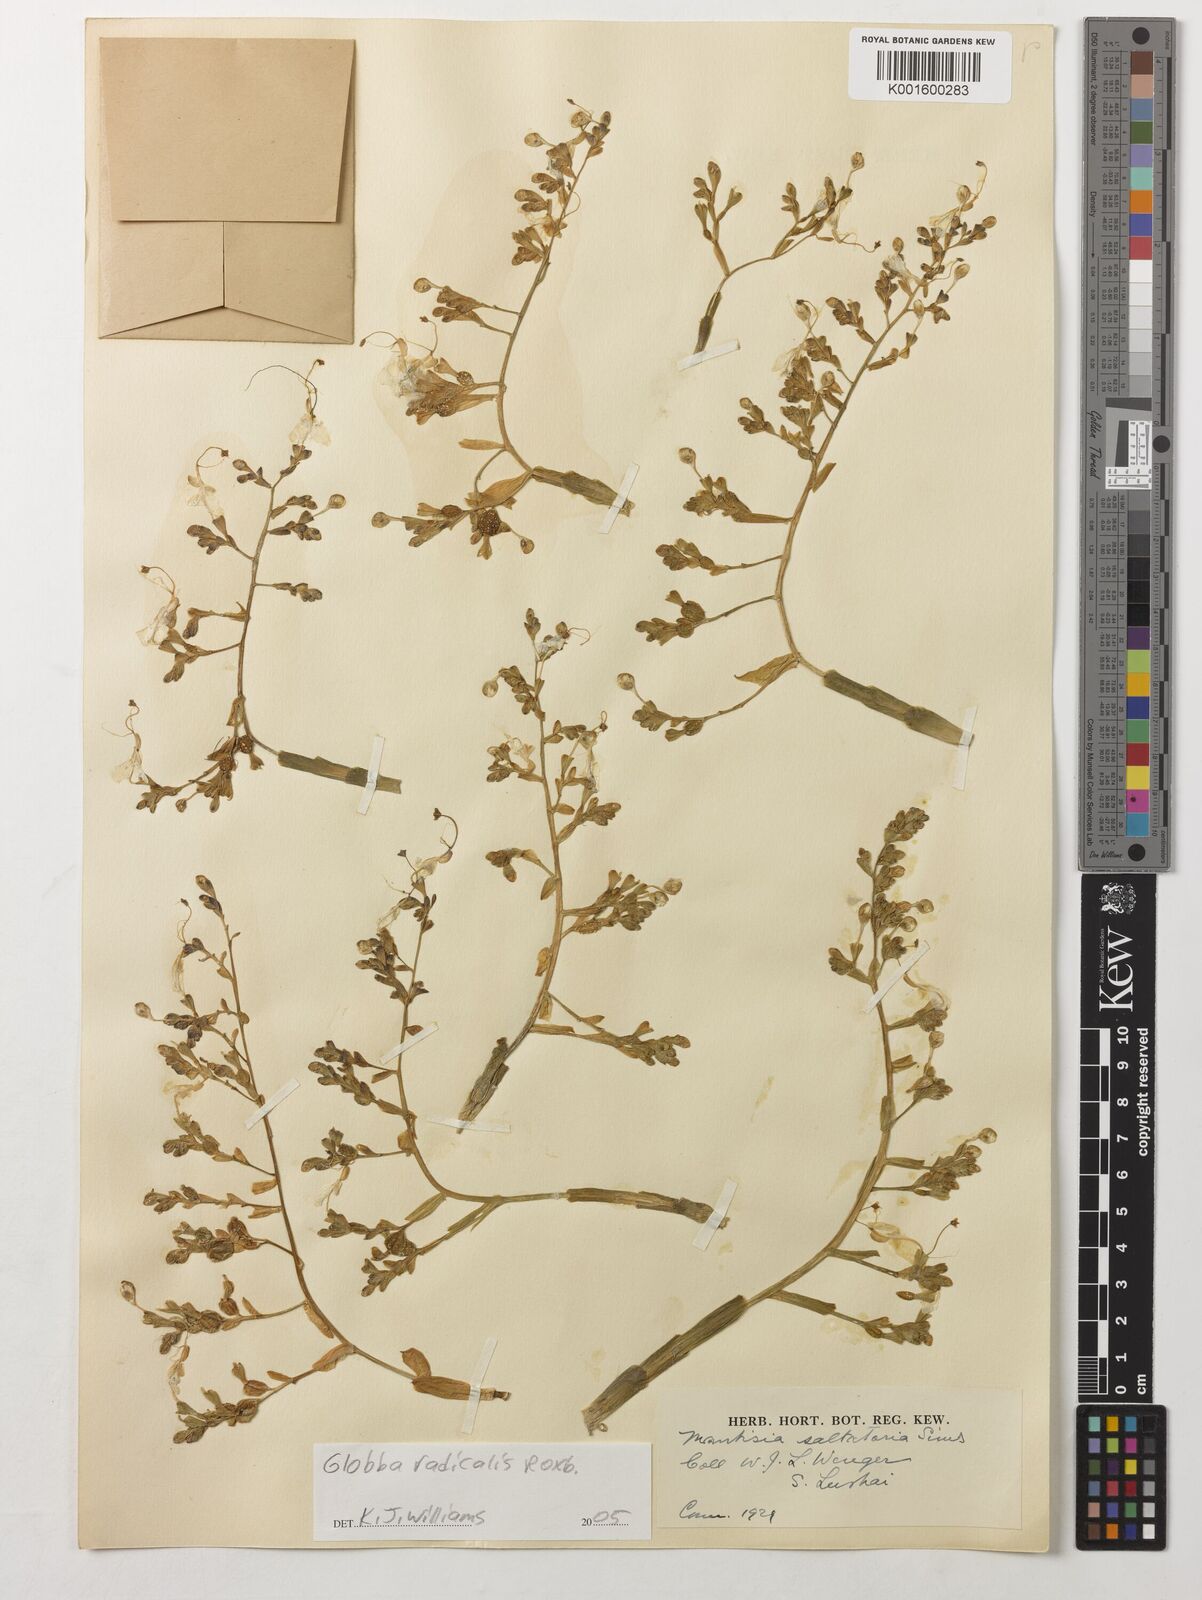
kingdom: Plantae
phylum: Tracheophyta
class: Liliopsida
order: Zingiberales
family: Zingiberaceae
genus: Globba
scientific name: Globba radicalis
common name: Dancing girl
